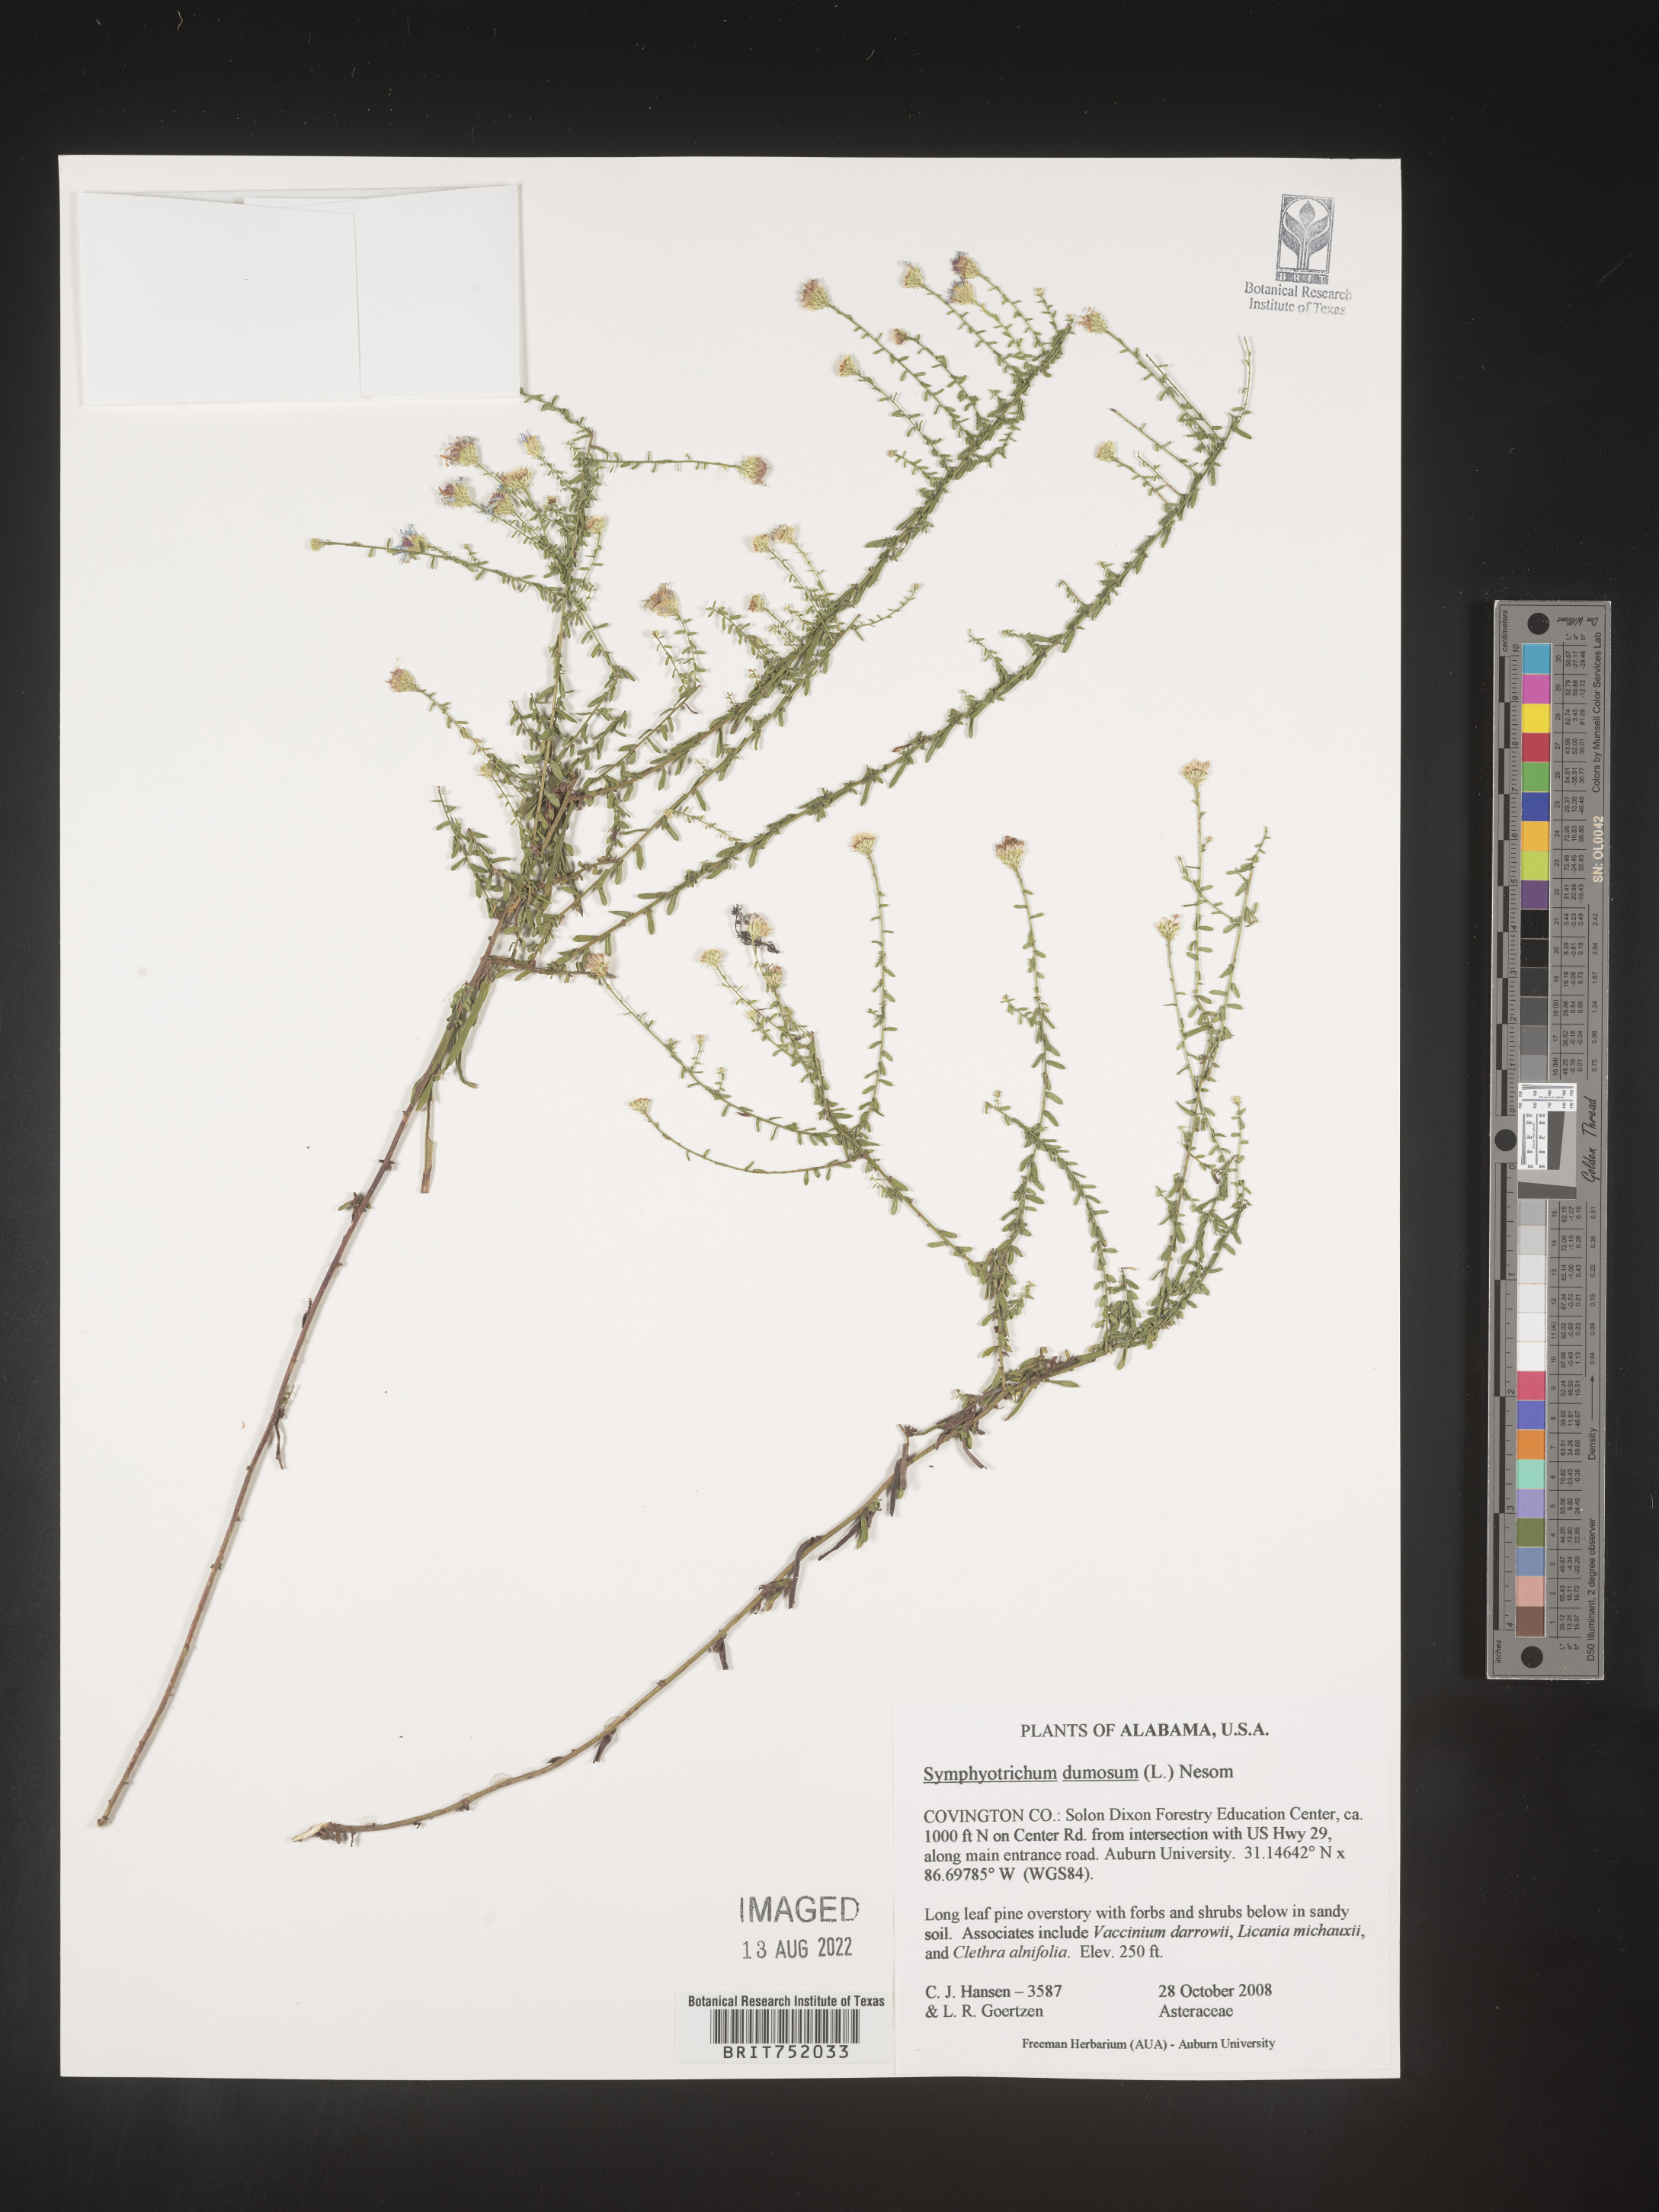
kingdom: Plantae
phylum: Tracheophyta
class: Magnoliopsida
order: Asterales
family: Asteraceae
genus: Symphyotrichum
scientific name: Symphyotrichum dumosum
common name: Bushy aster
